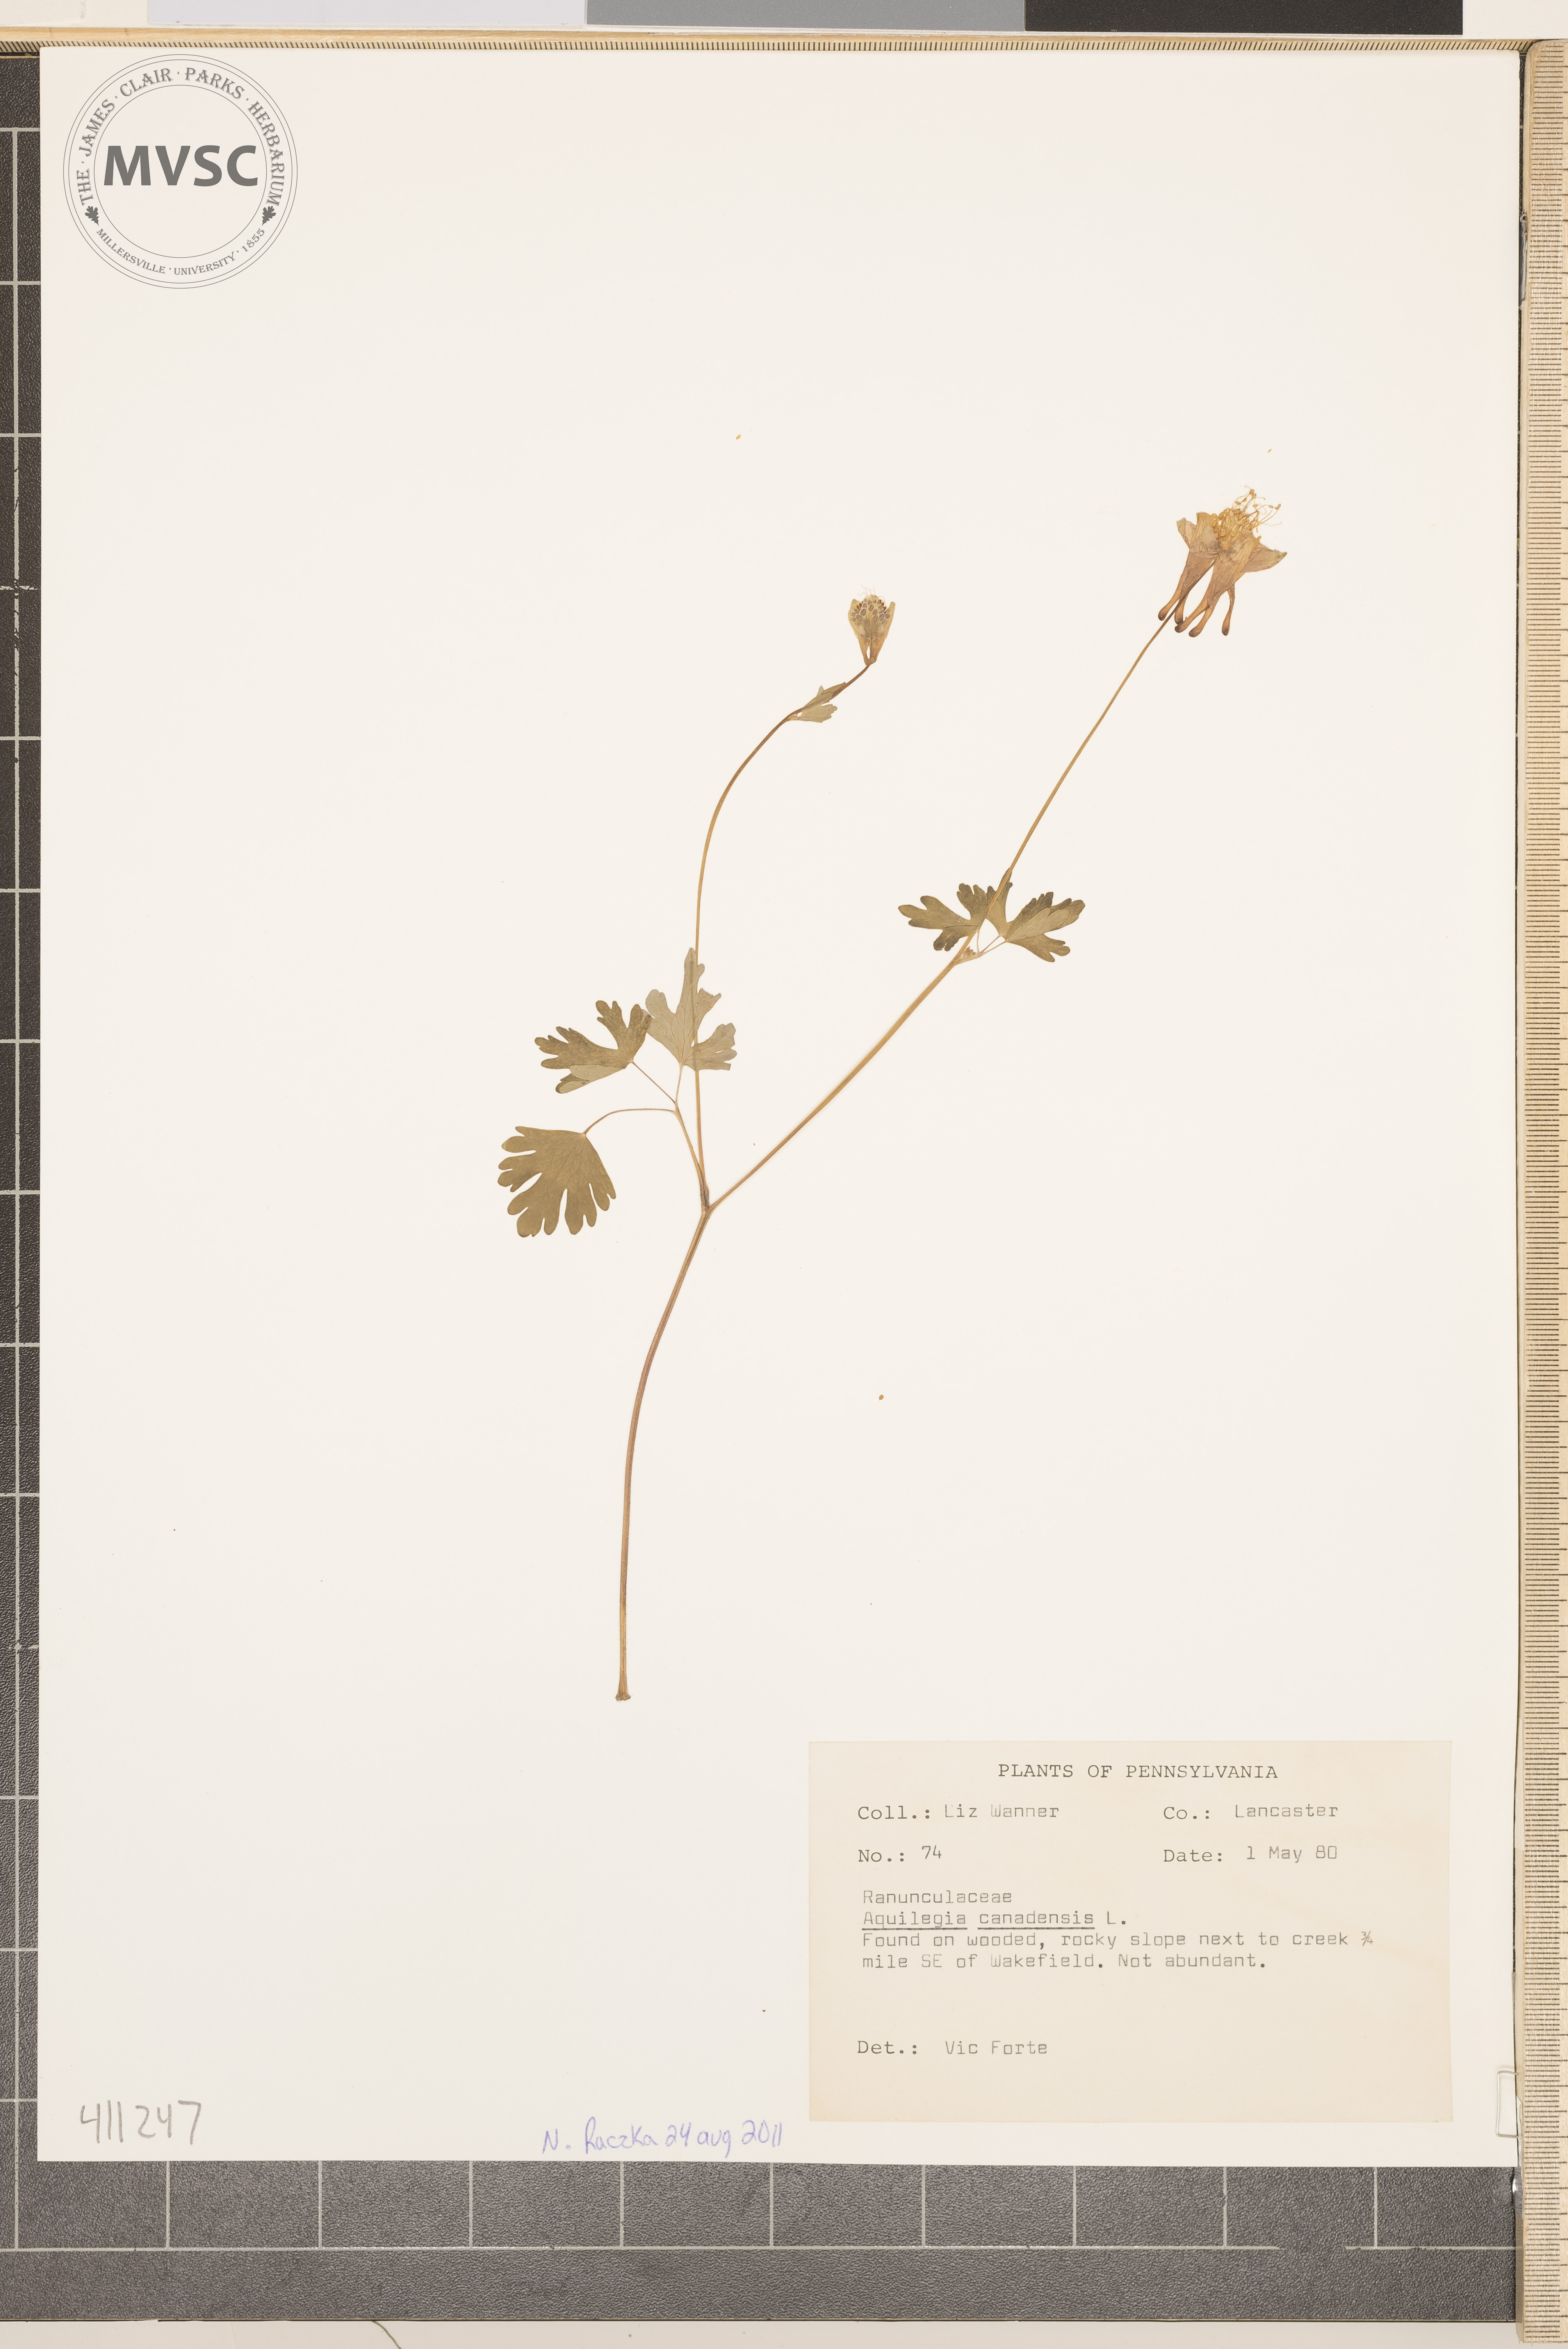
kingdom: Plantae
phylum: Tracheophyta
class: Magnoliopsida
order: Ranunculales
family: Ranunculaceae
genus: Aquilegia
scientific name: Aquilegia canadensis
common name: Wild columbine
